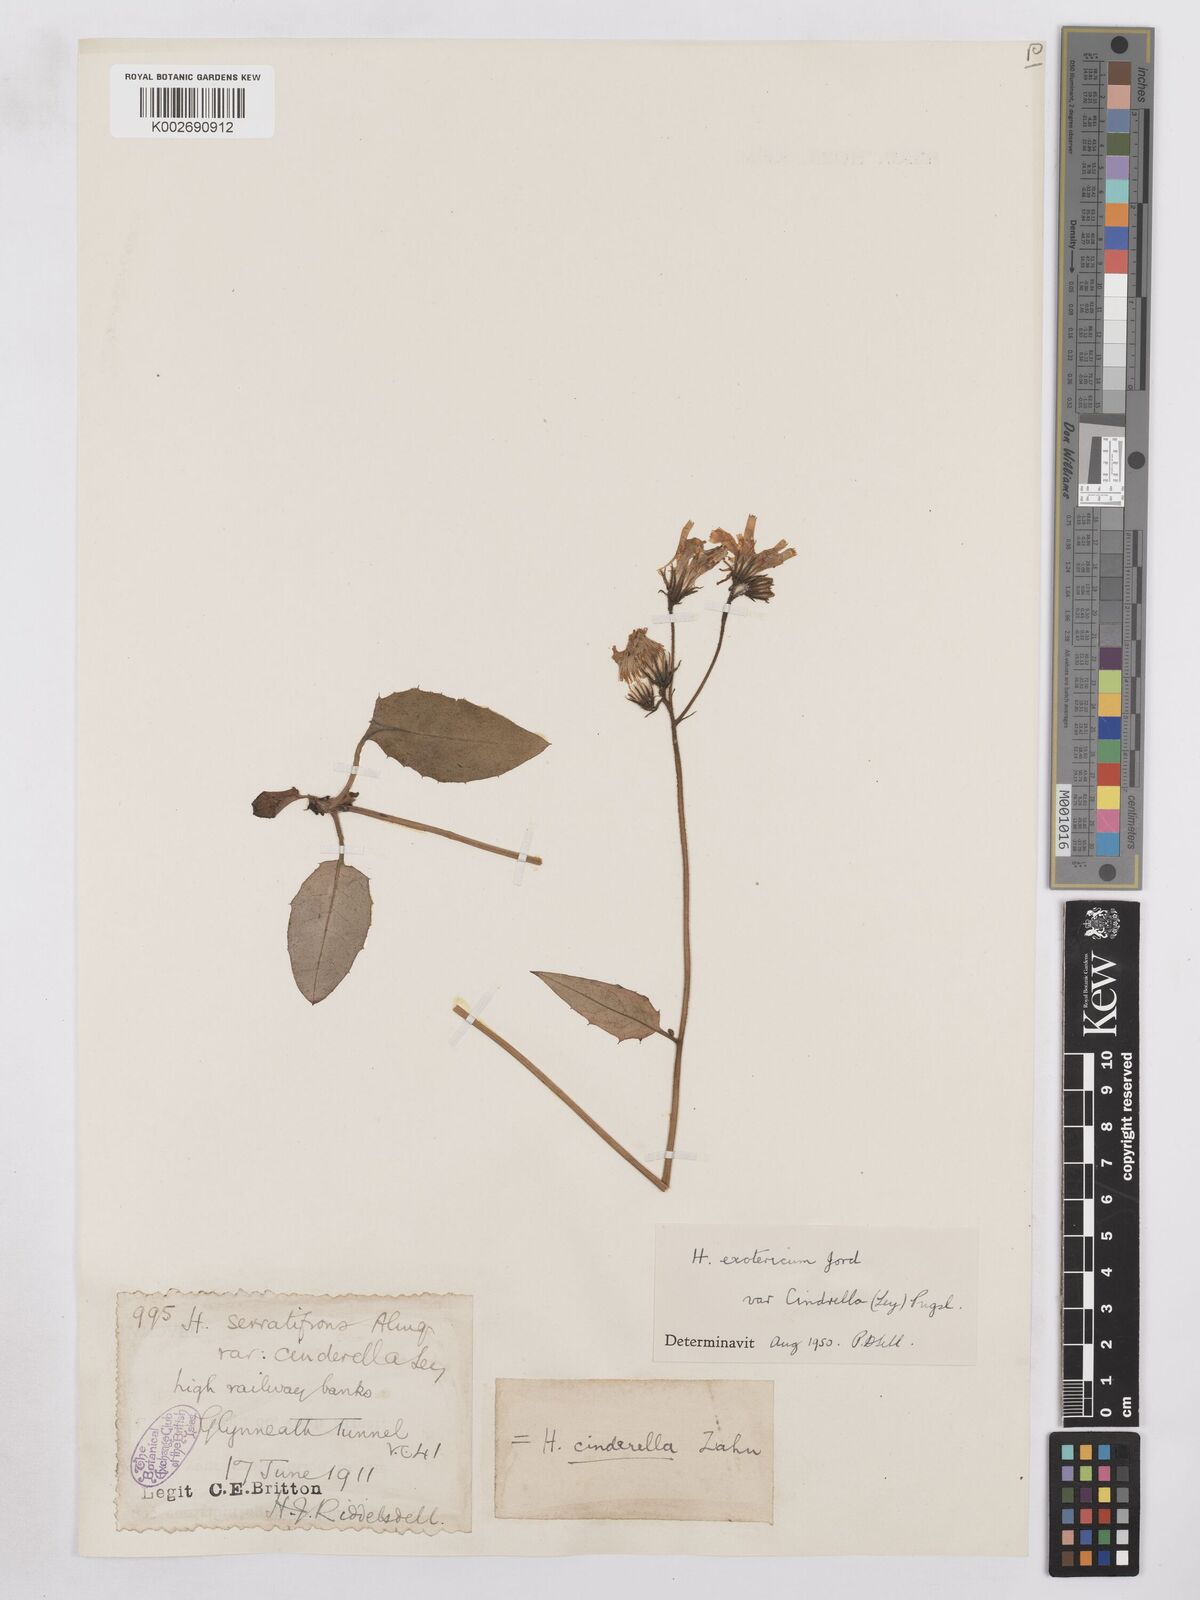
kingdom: Plantae
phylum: Tracheophyta
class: Magnoliopsida
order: Asterales
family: Asteraceae
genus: Hieracium
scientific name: Hieracium murorum
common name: Wall hawkweed
